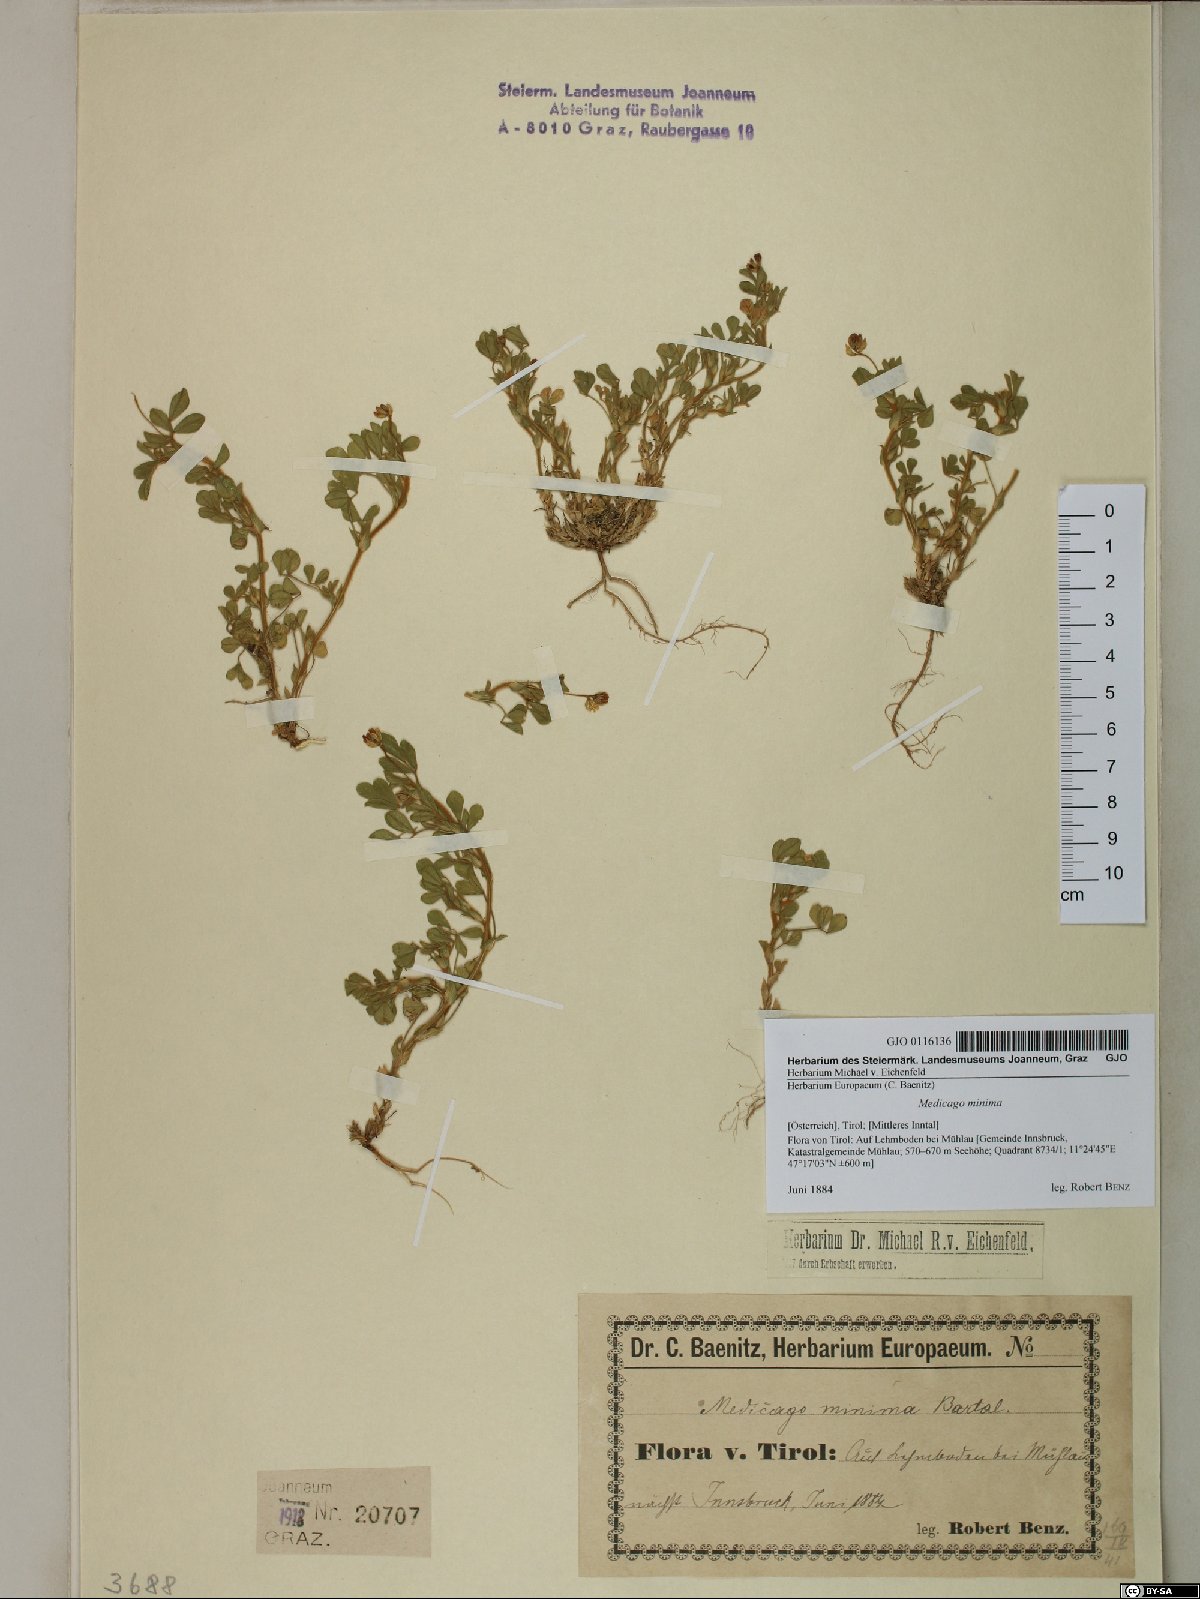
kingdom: Plantae
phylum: Tracheophyta
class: Magnoliopsida
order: Fabales
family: Fabaceae
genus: Medicago
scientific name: Medicago minima
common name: Little bur-clover
